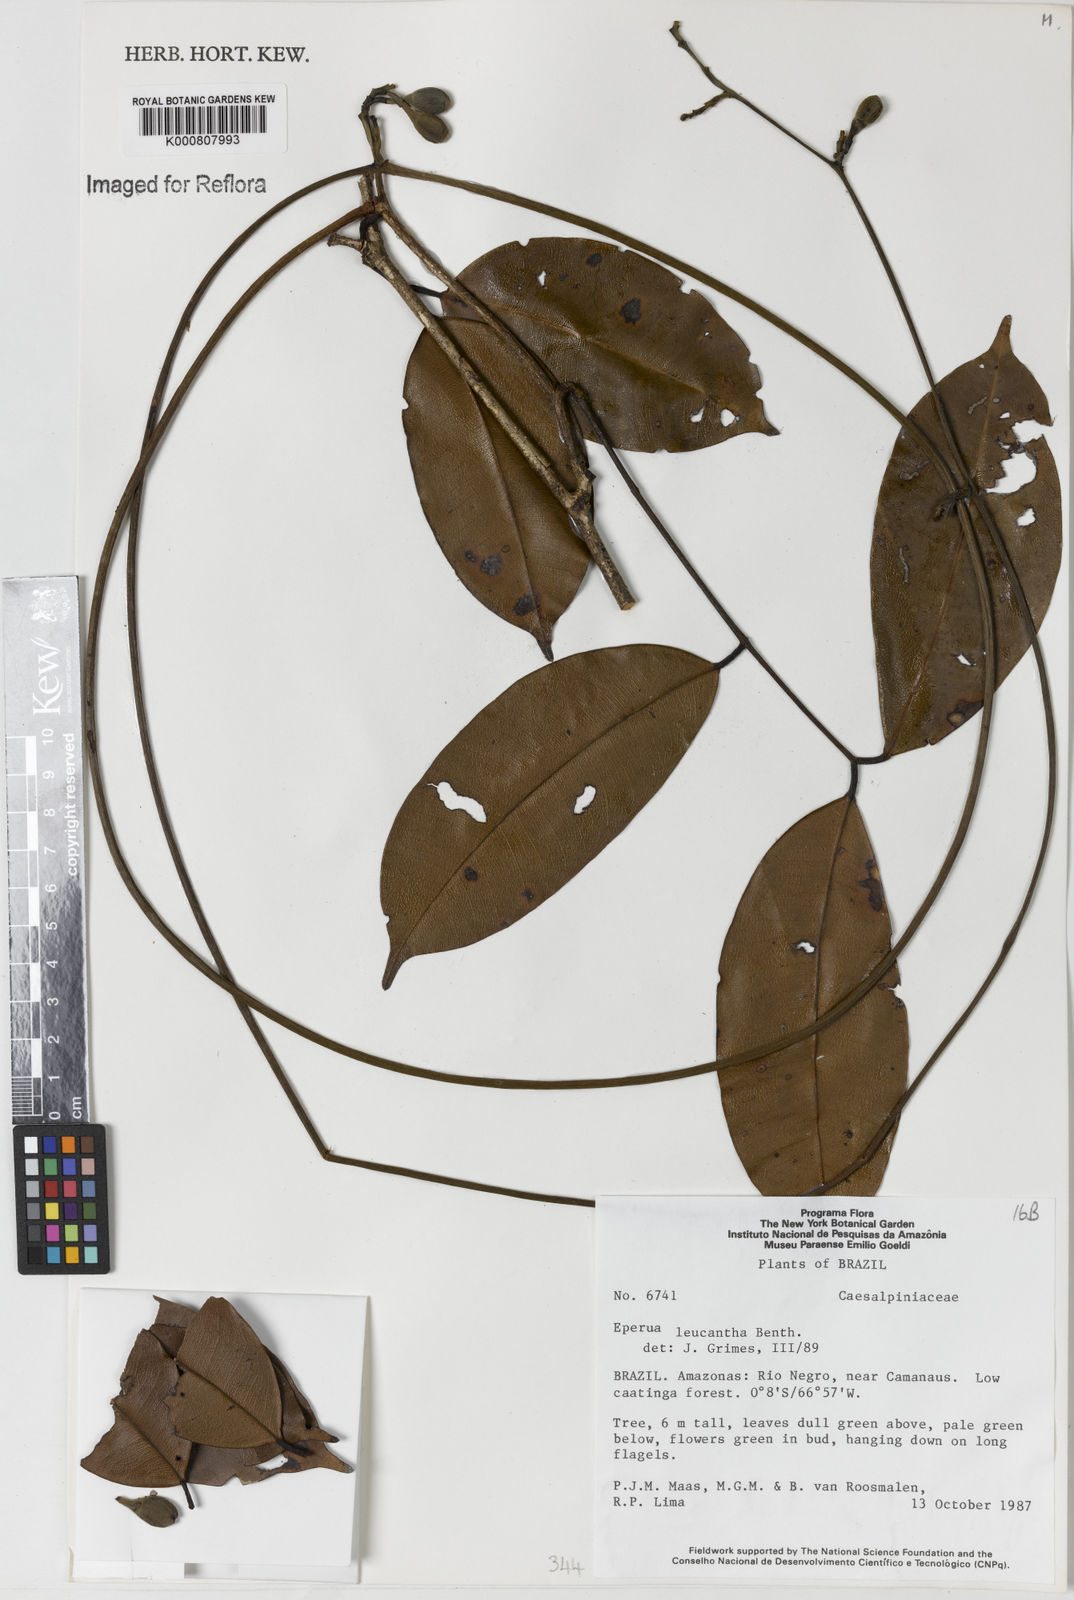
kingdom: Plantae
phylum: Tracheophyta
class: Magnoliopsida
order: Fabales
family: Fabaceae
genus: Eperua
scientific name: Eperua leucantha
